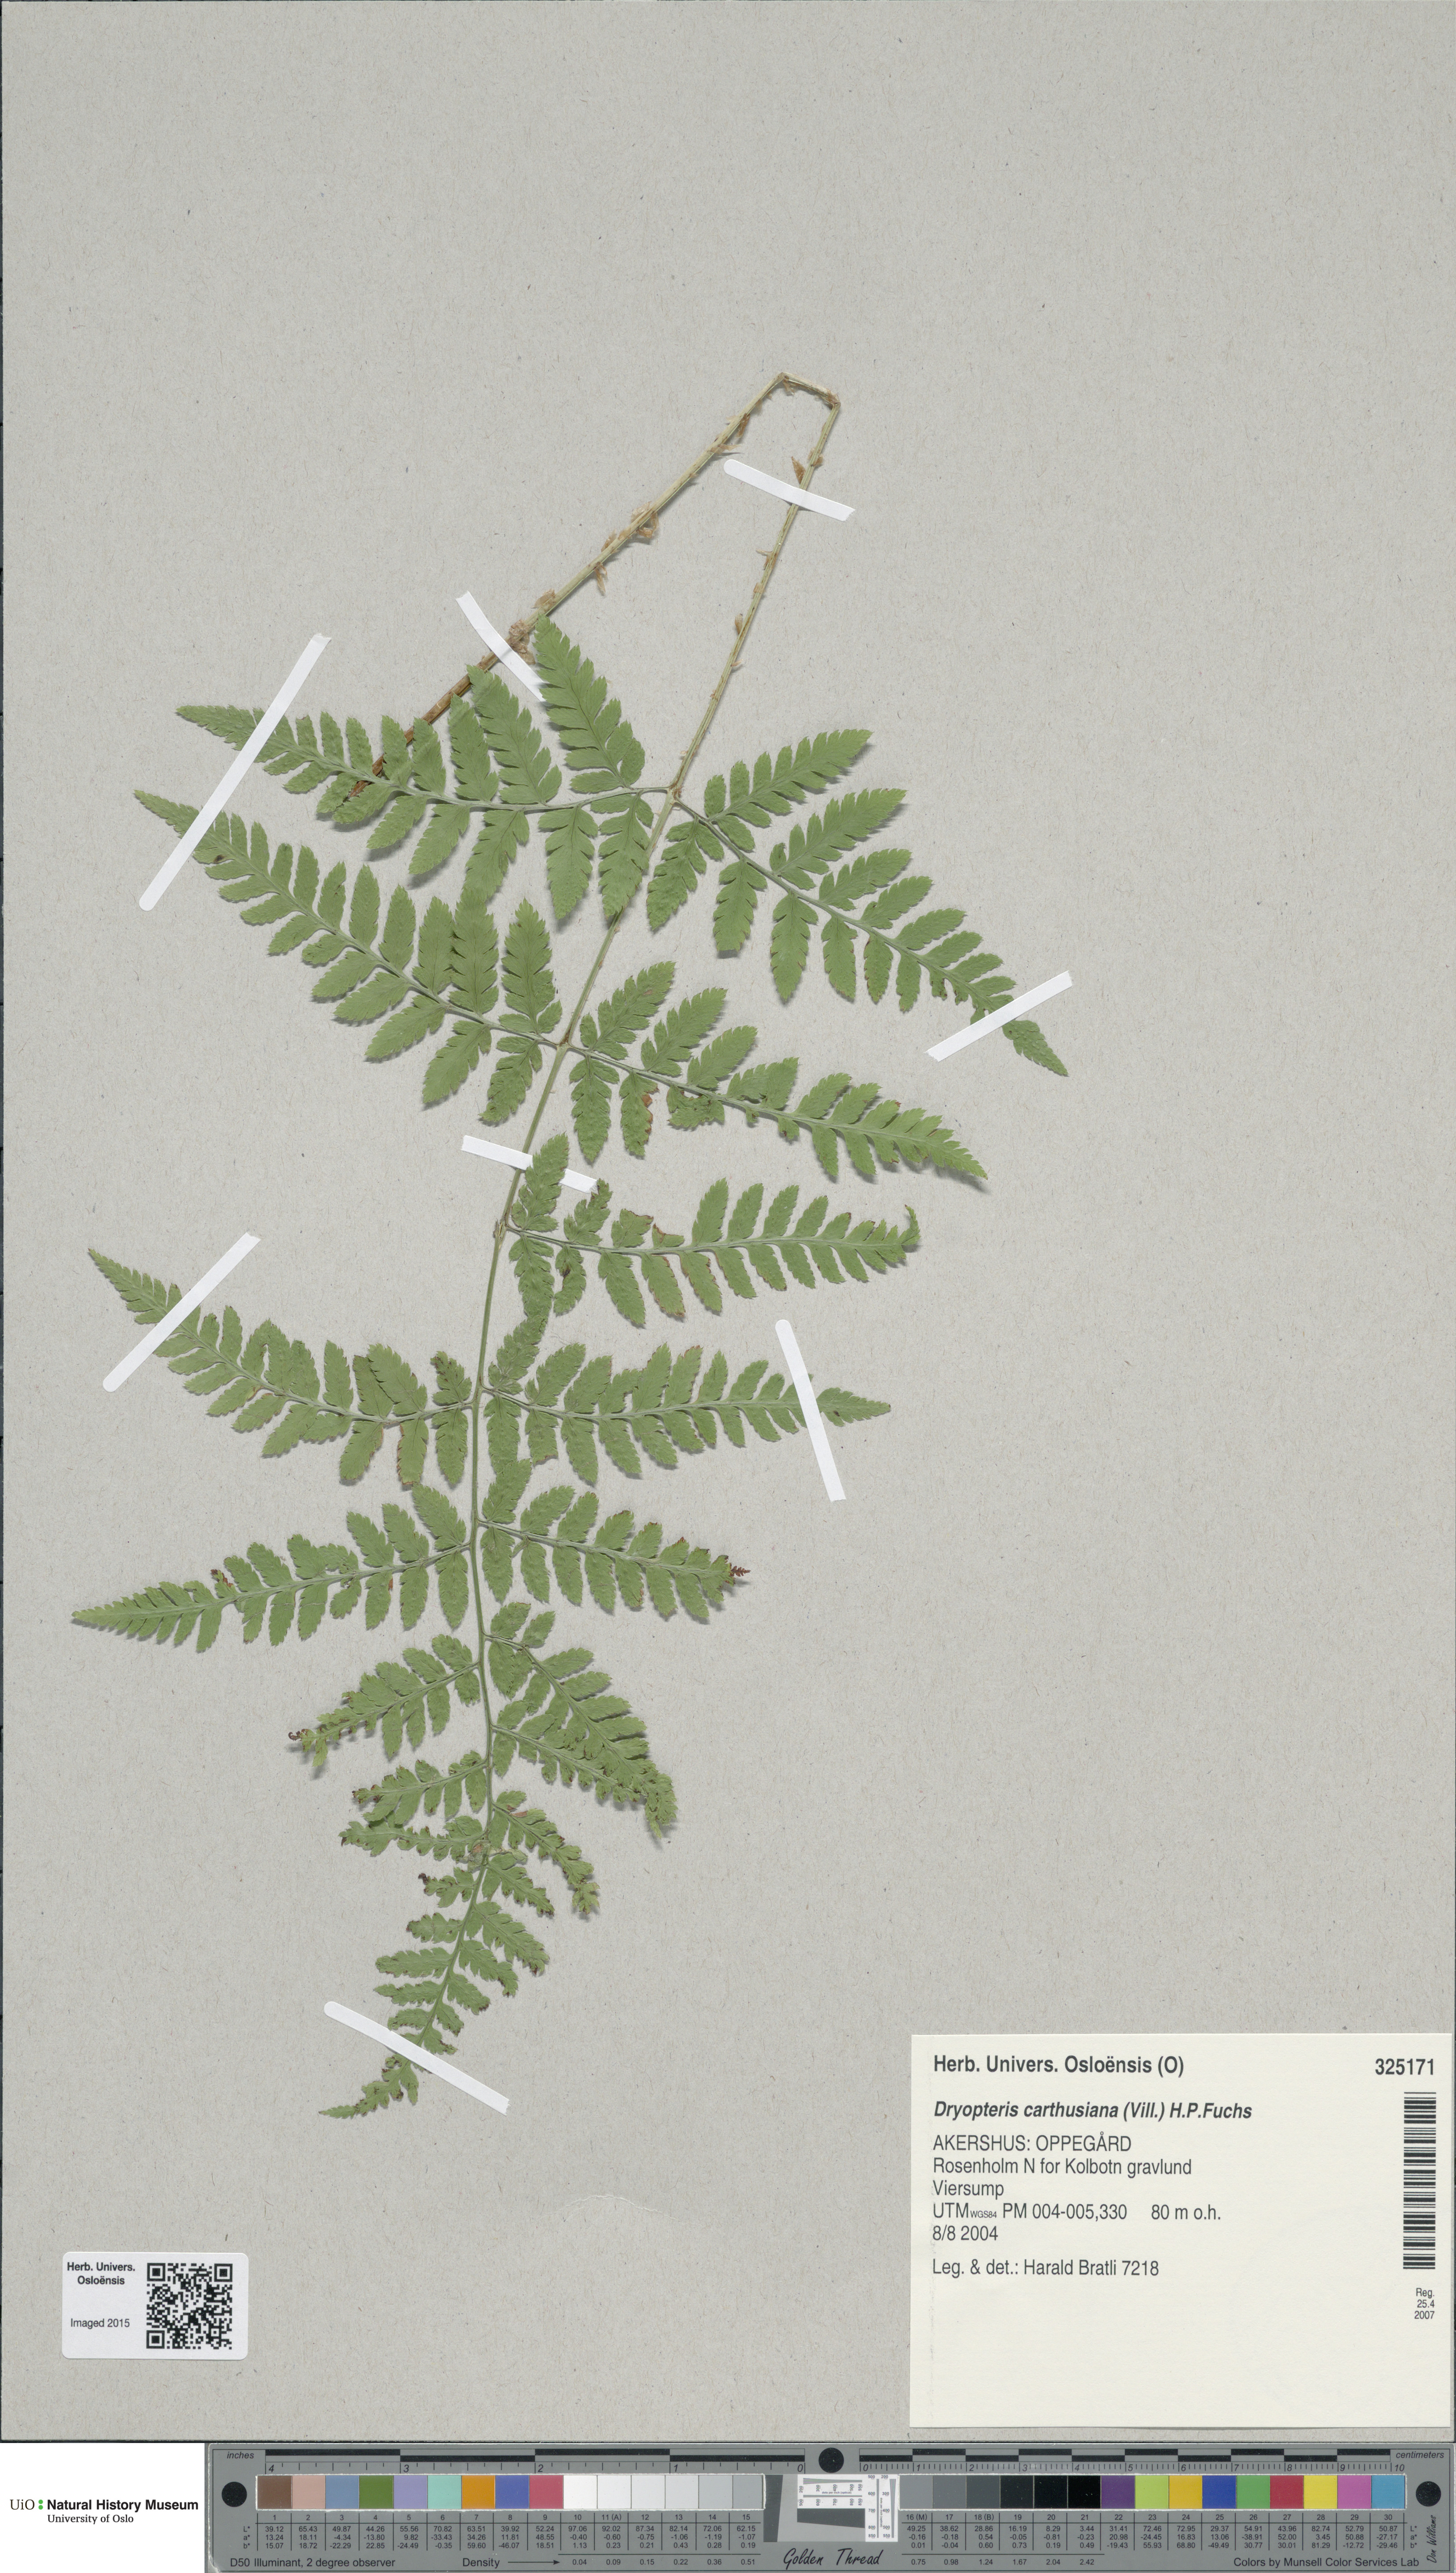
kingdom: Plantae
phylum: Tracheophyta
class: Polypodiopsida
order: Polypodiales
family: Dryopteridaceae
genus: Dryopteris
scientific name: Dryopteris carthusiana
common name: Narrow buckler-fern
